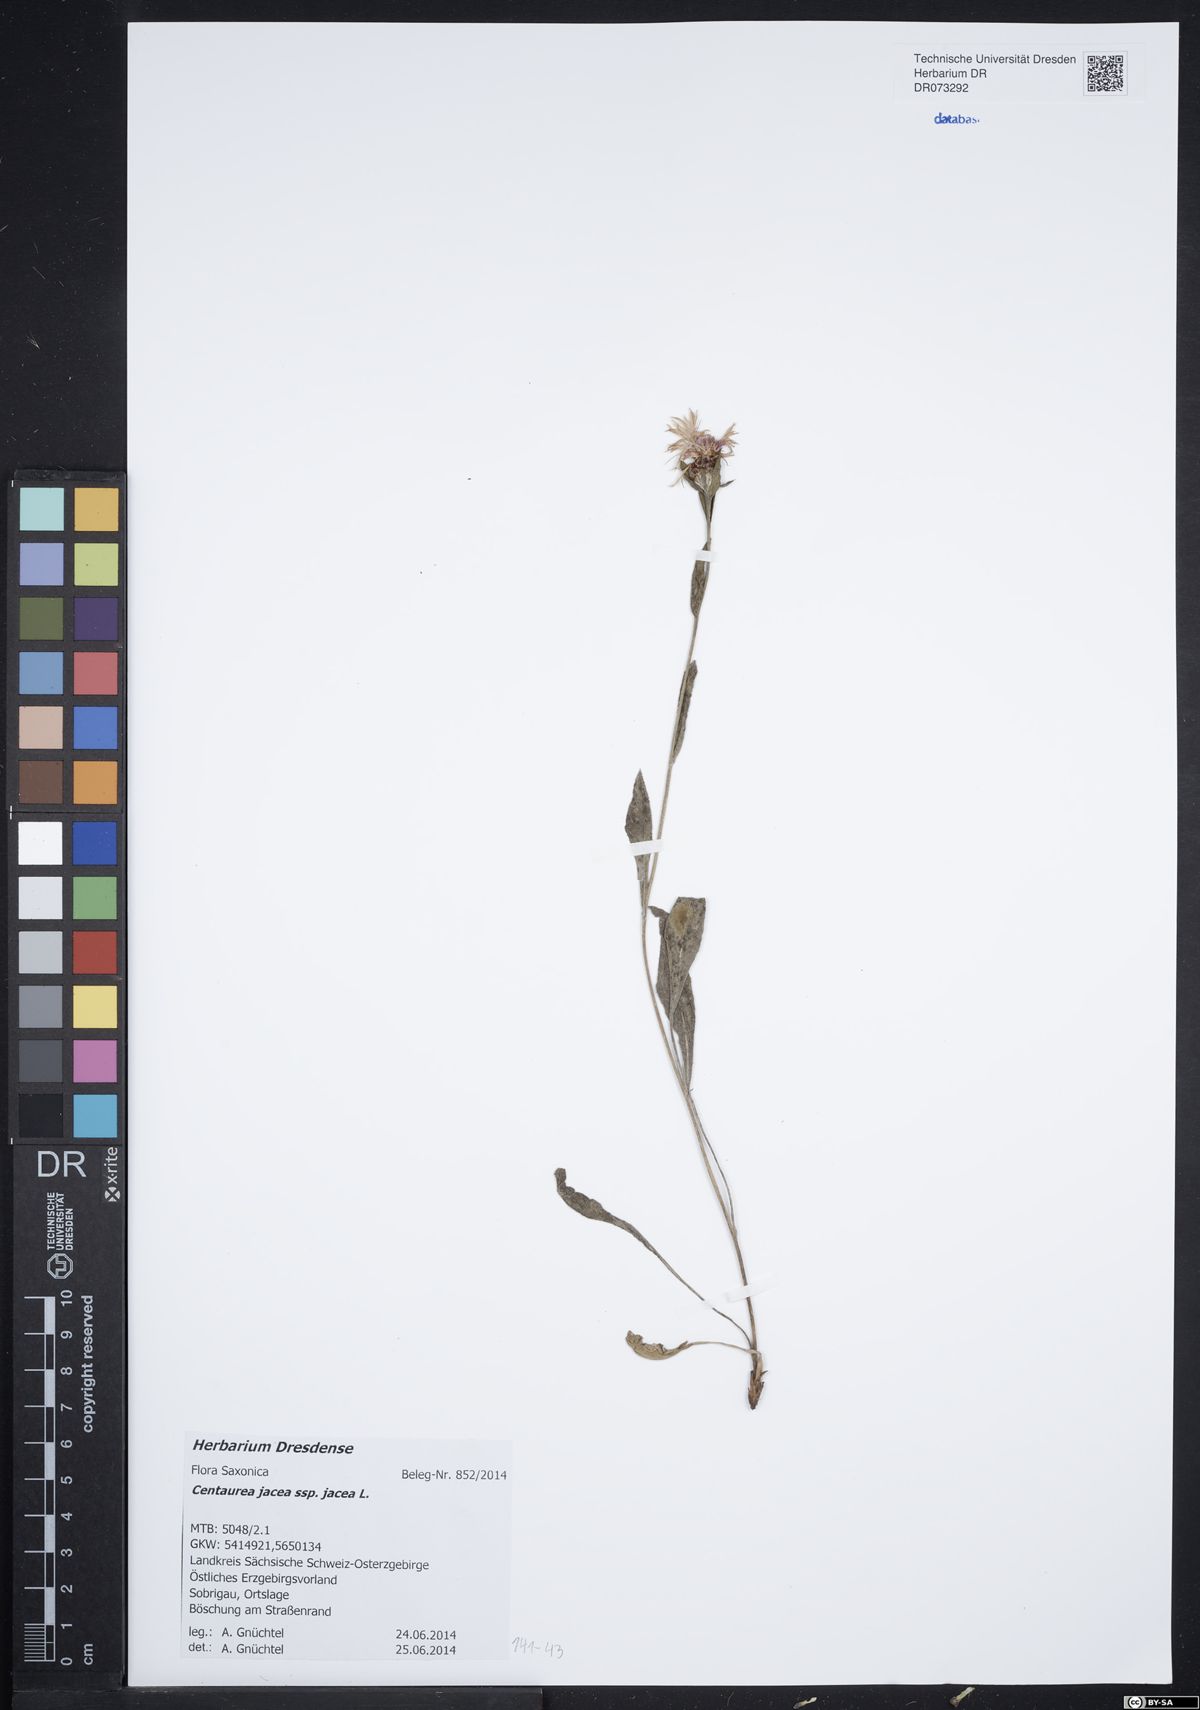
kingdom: Plantae
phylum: Tracheophyta
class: Magnoliopsida
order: Asterales
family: Asteraceae
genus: Centaurea
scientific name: Centaurea jacea
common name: Brown knapweed
